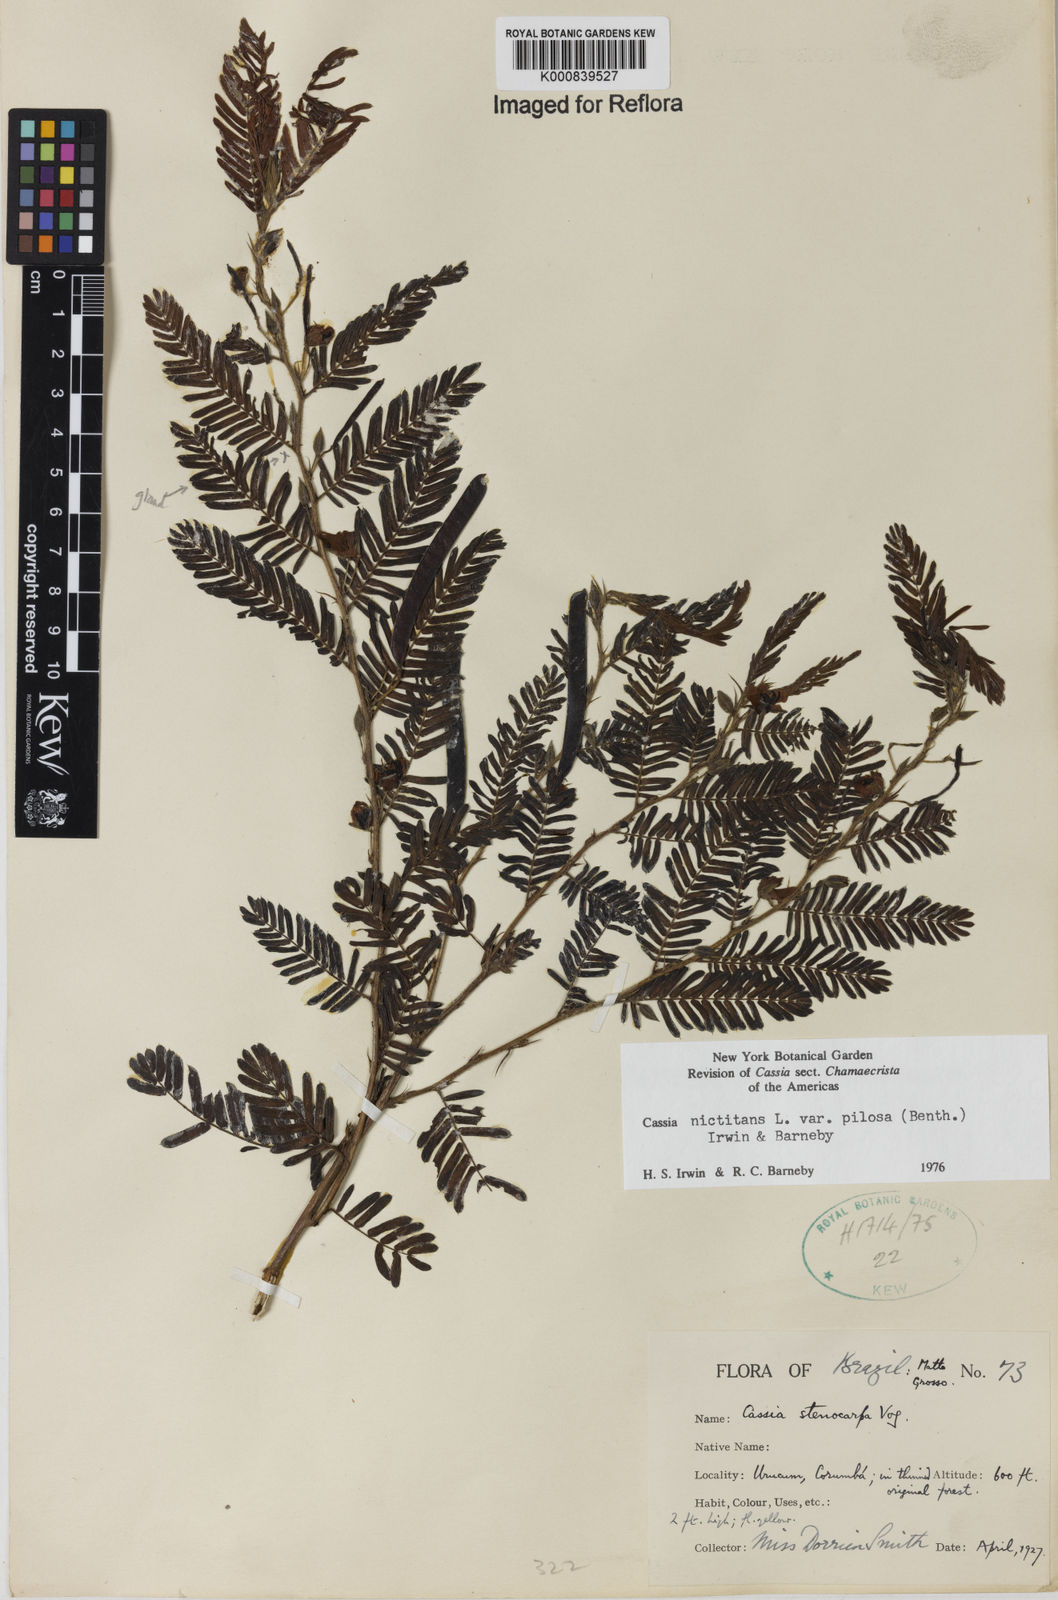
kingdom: Plantae
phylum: Tracheophyta
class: Magnoliopsida
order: Fabales
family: Fabaceae
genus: Chamaecrista
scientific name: Chamaecrista nictitans
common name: Sensitive cassia
